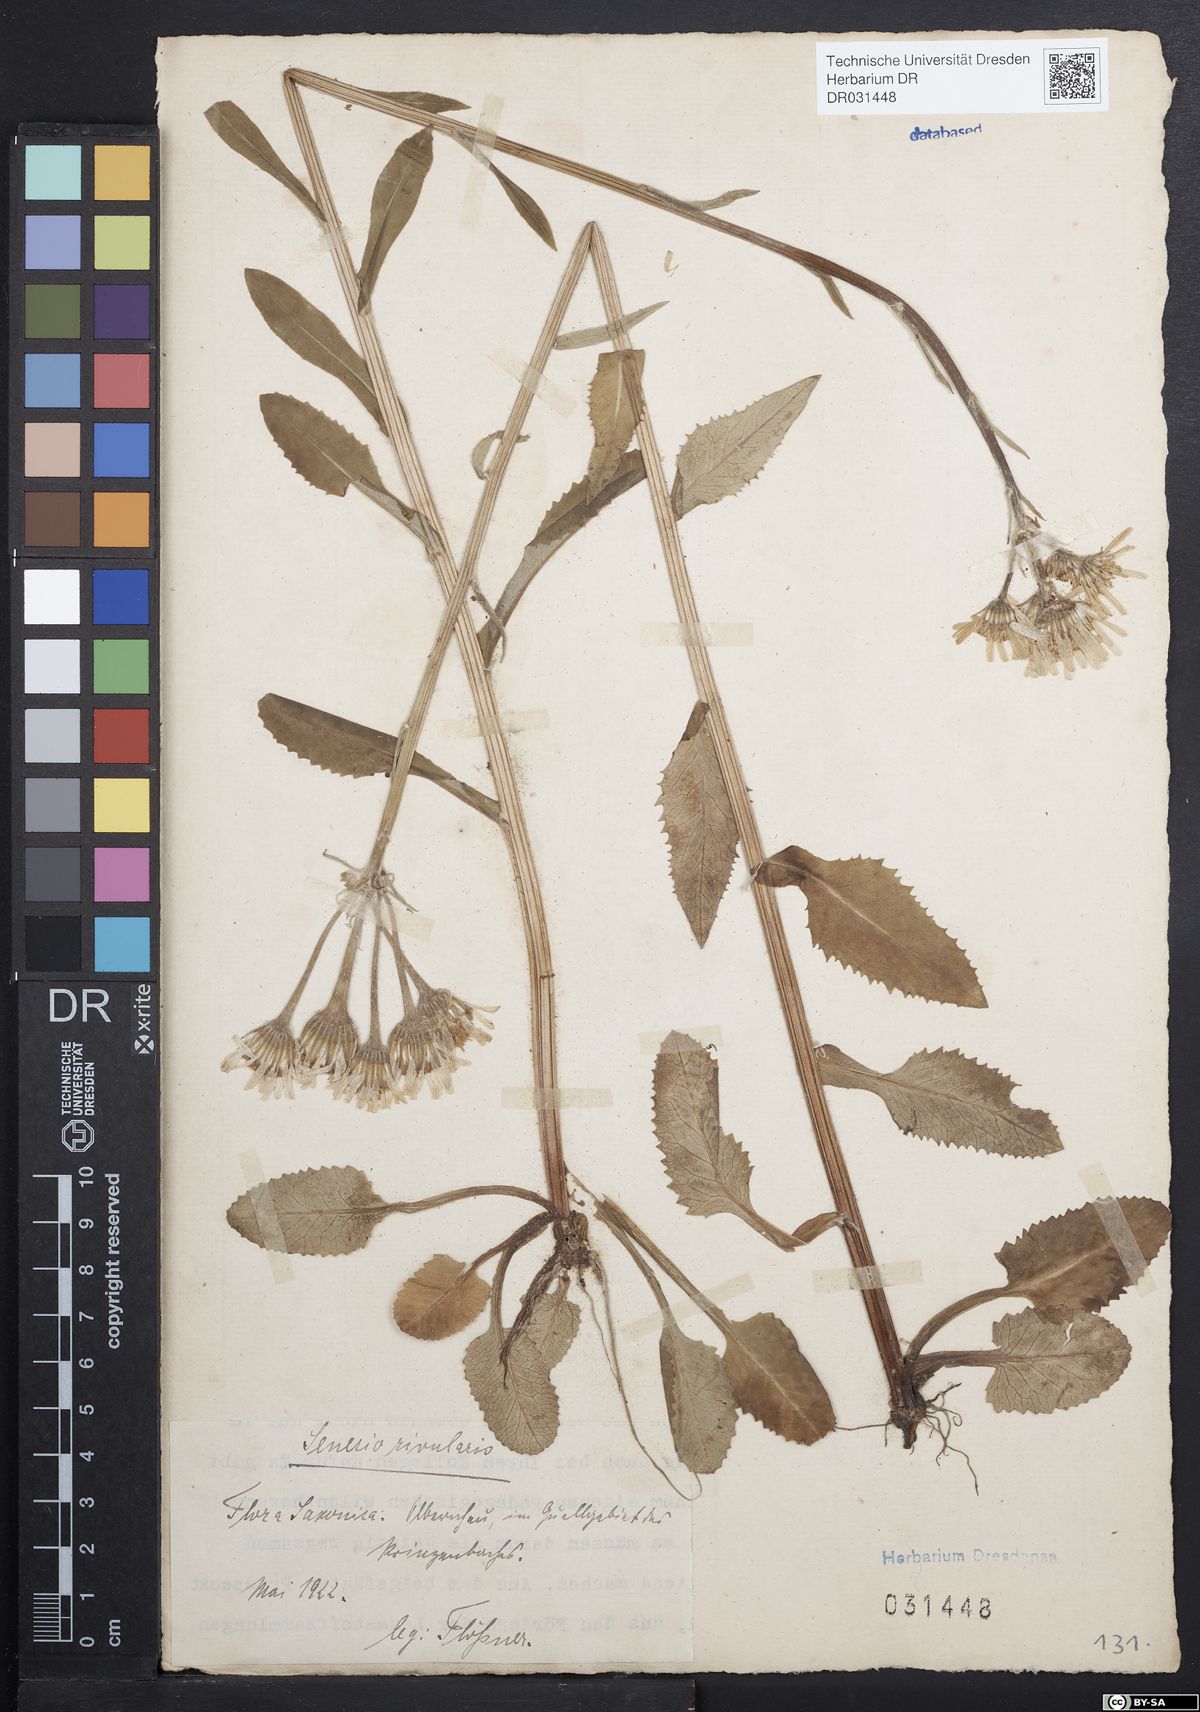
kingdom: Plantae
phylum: Tracheophyta
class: Magnoliopsida
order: Asterales
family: Asteraceae
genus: Tephroseris
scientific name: Tephroseris crispa
